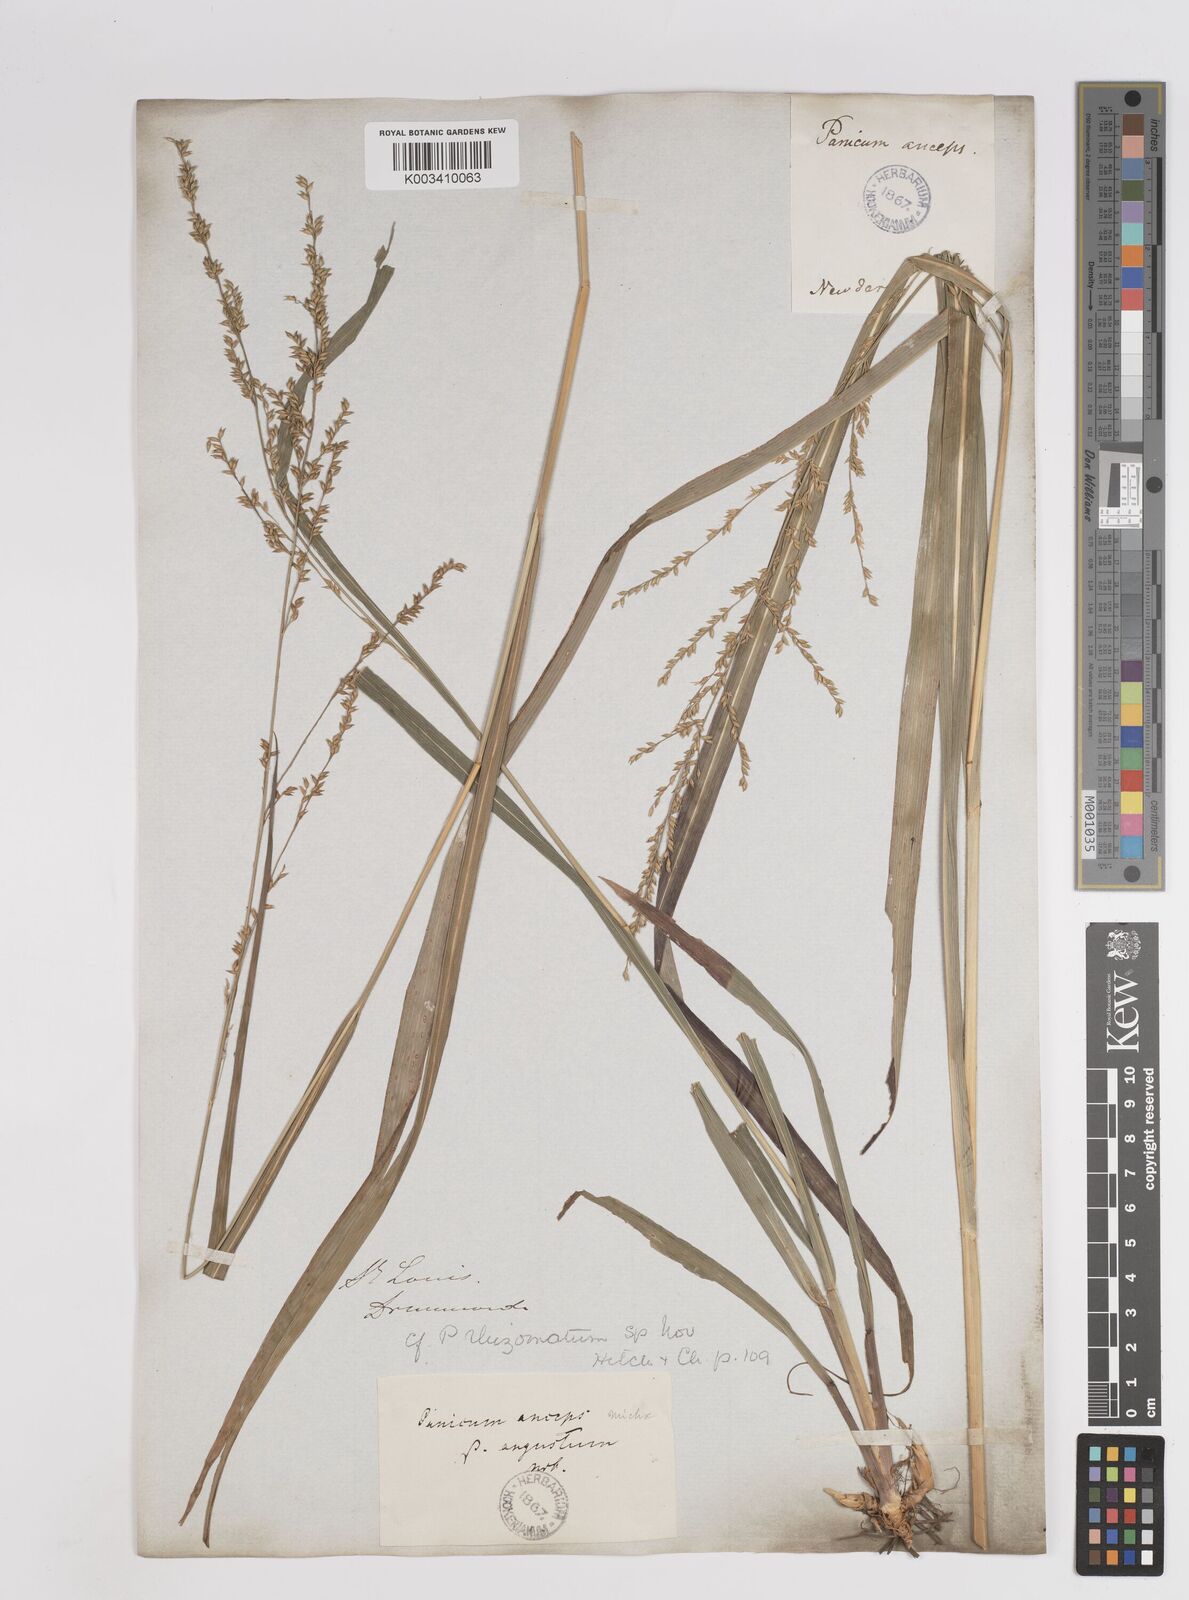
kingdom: Plantae
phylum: Tracheophyta
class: Liliopsida
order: Poales
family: Poaceae
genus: Coleataenia
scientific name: Coleataenia anceps
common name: Beaked panic grass
